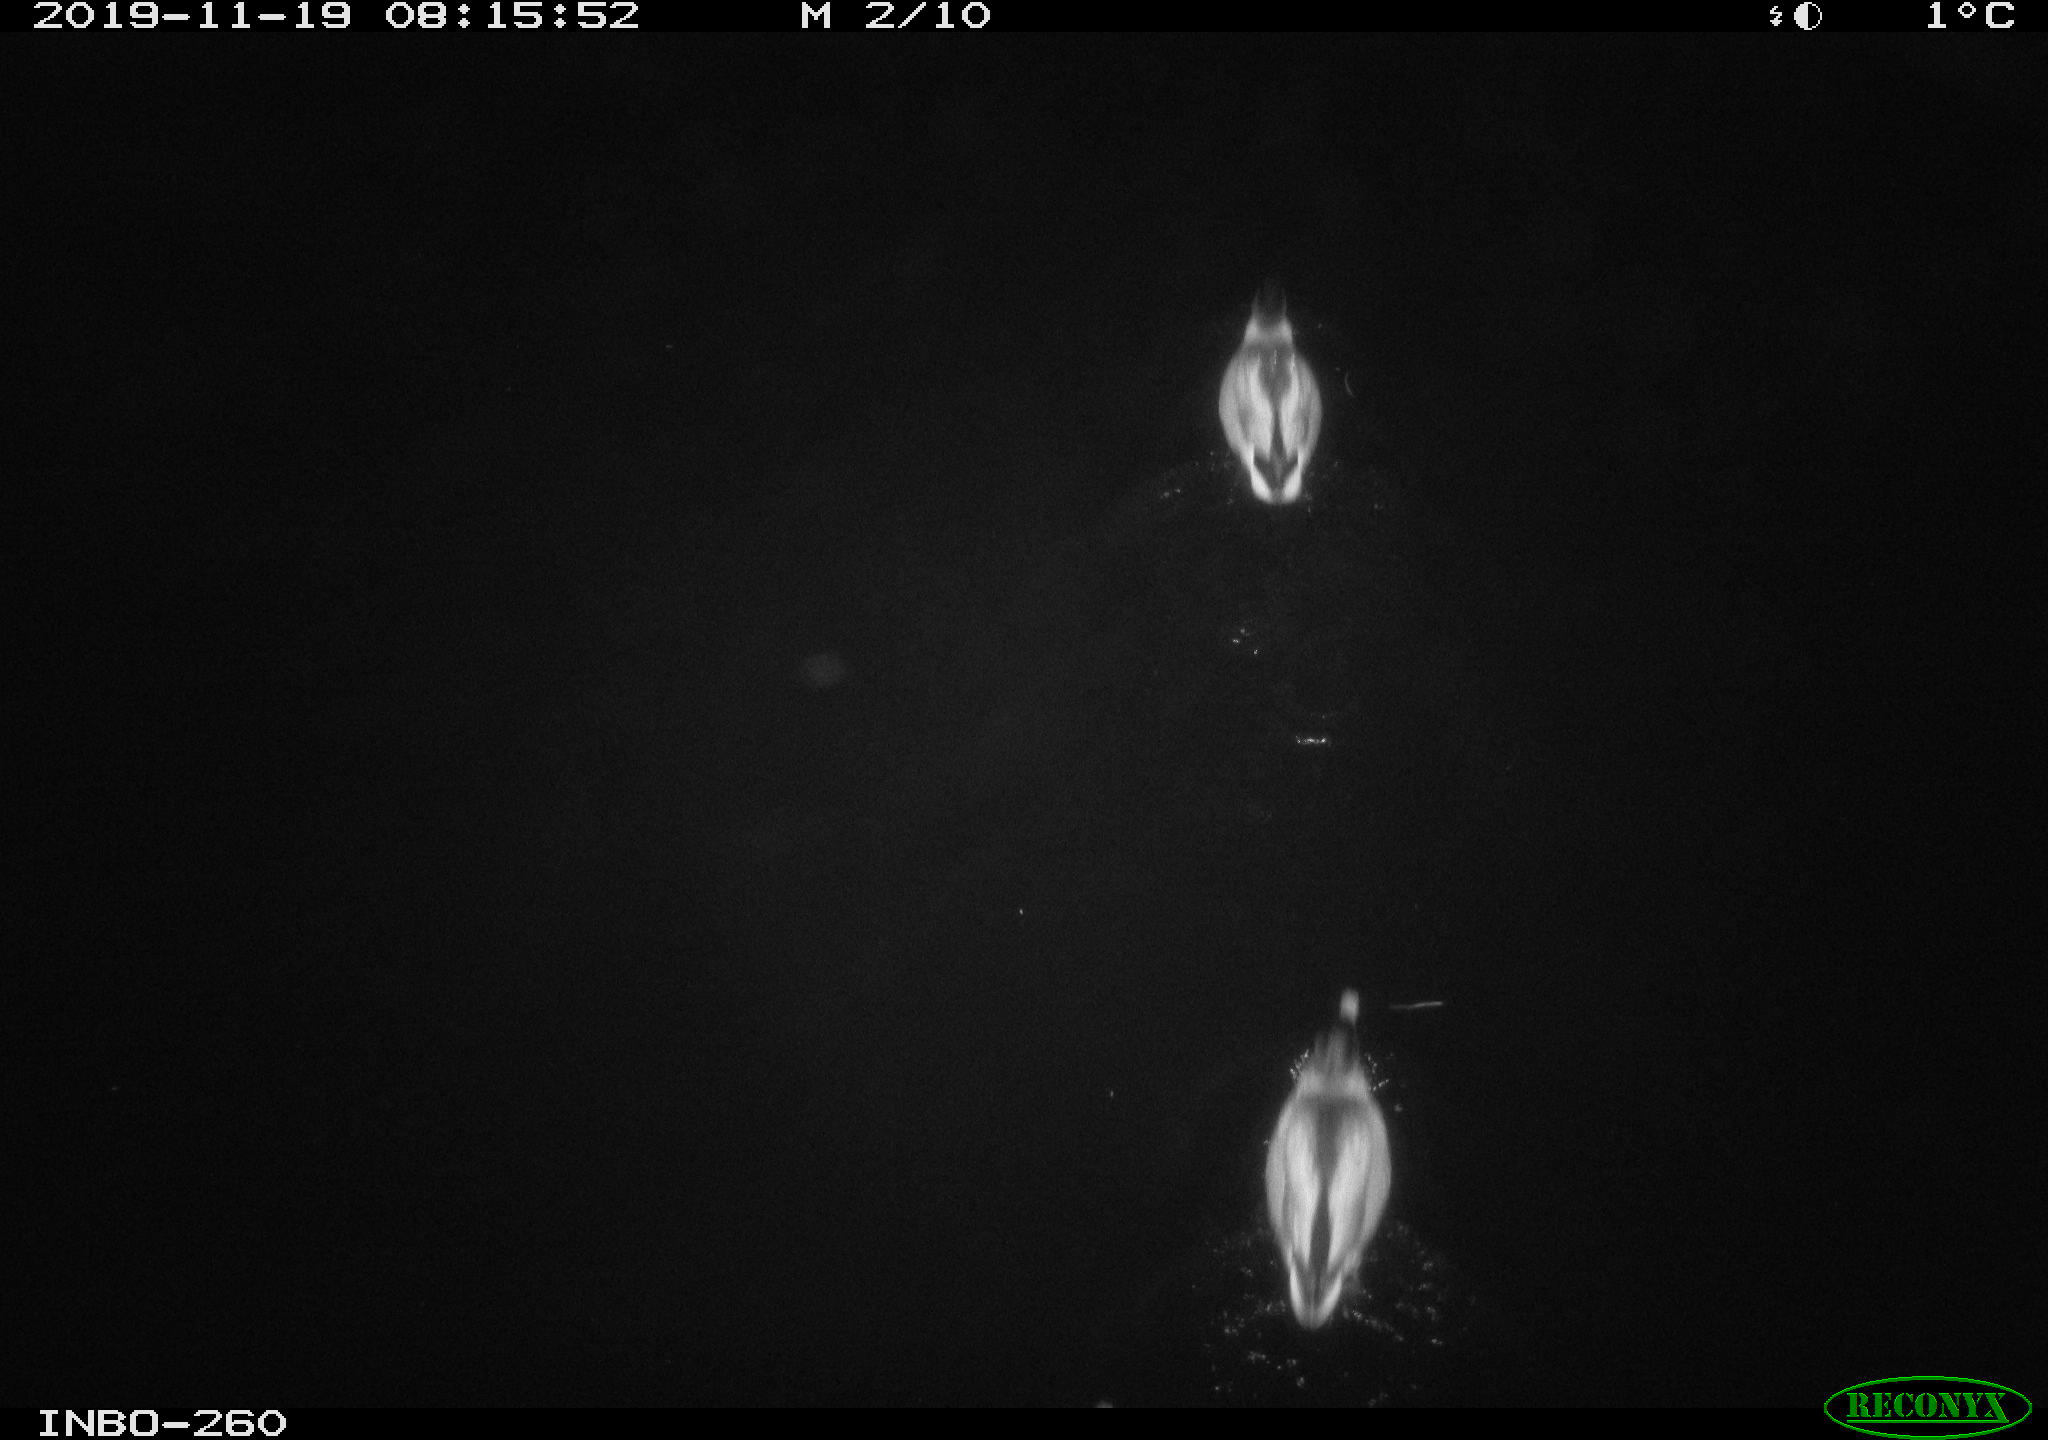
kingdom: Animalia
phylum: Chordata
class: Aves
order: Anseriformes
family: Anatidae
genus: Anas
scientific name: Anas platyrhynchos
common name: Mallard
